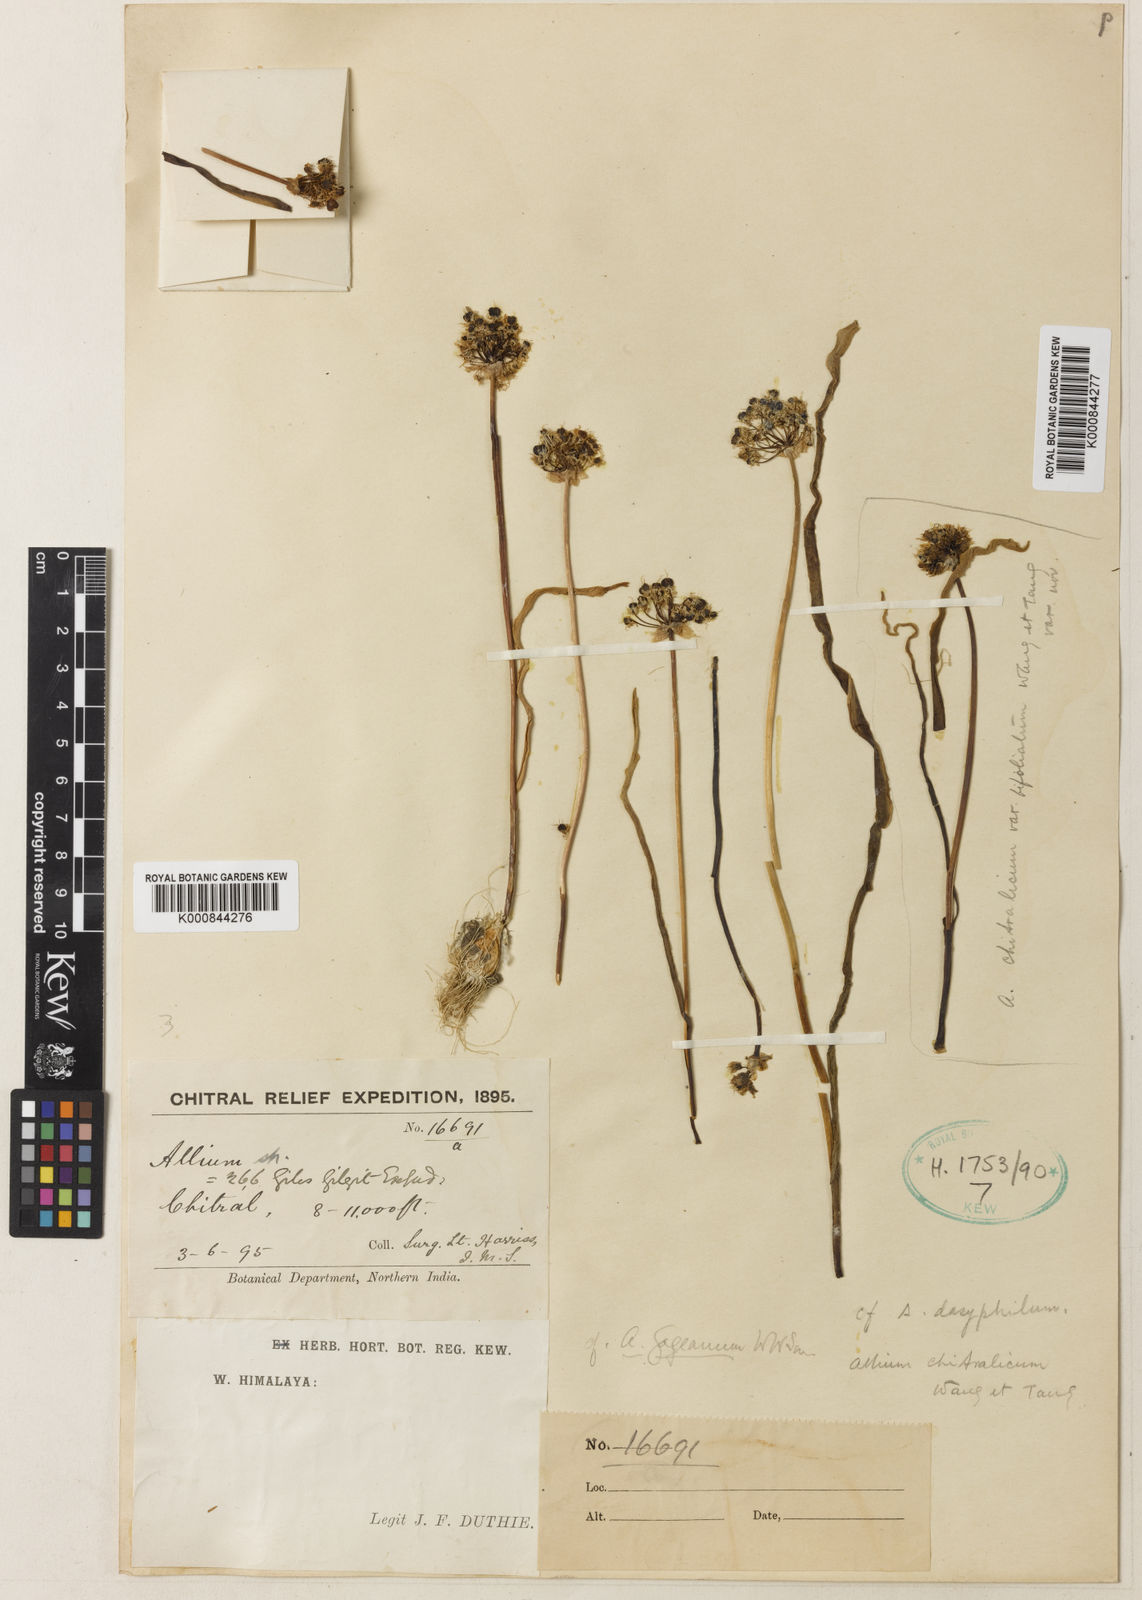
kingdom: Plantae
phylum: Tracheophyta
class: Liliopsida
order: Asparagales
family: Amaryllidaceae
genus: Allium
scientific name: Allium
